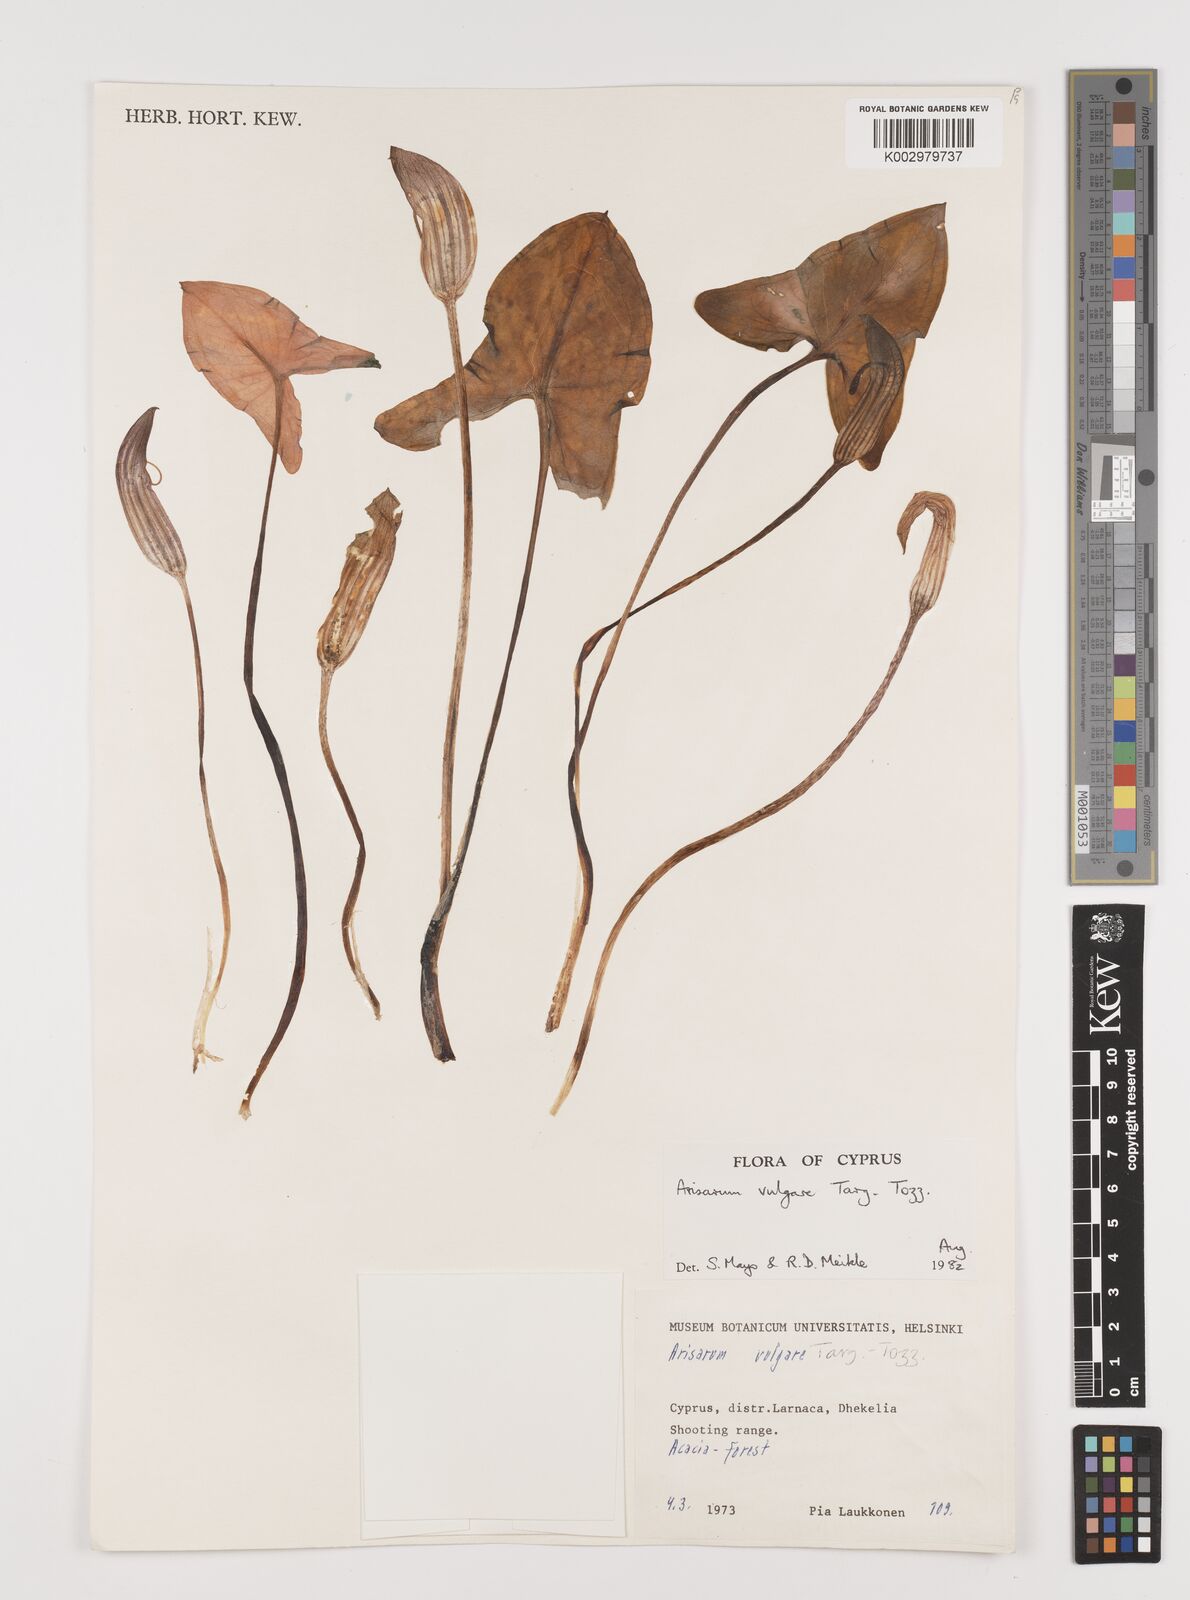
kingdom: Plantae
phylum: Tracheophyta
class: Liliopsida
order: Alismatales
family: Araceae
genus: Arisarum
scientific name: Arisarum vulgare
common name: Common arisarum
